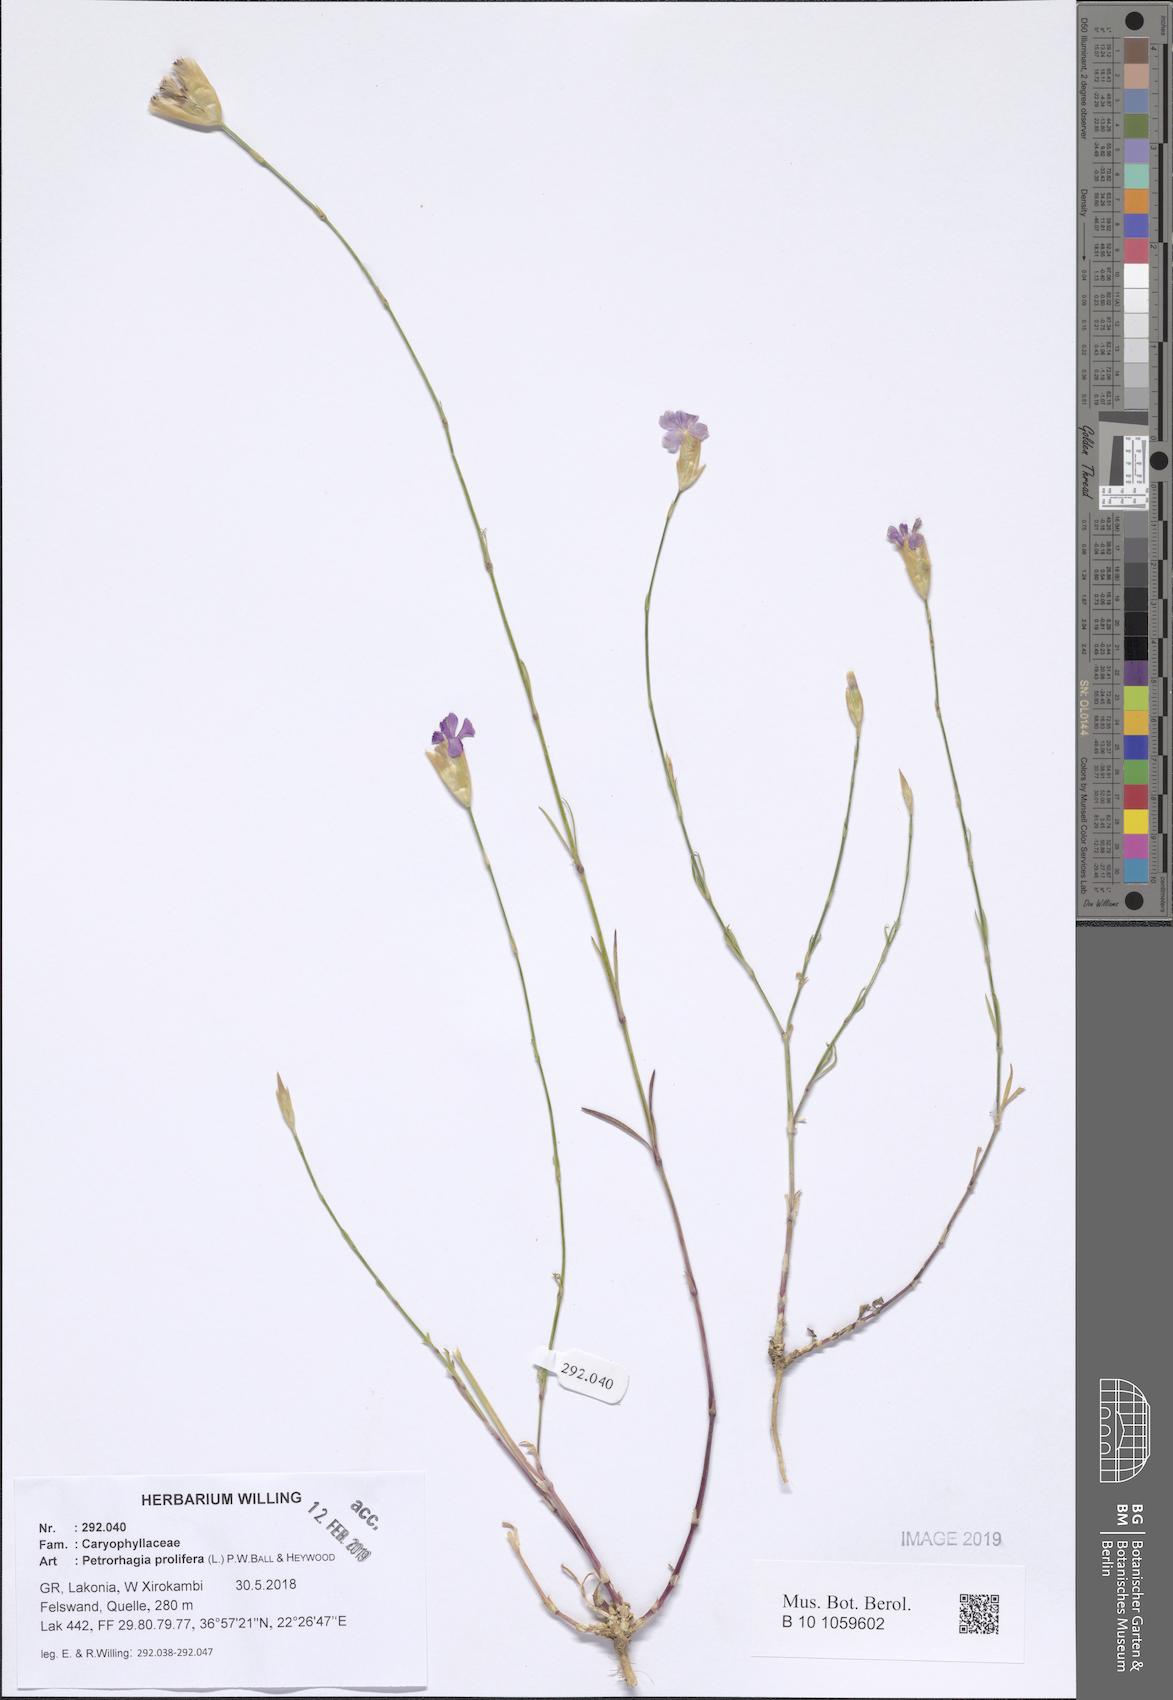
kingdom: Plantae
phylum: Tracheophyta
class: Magnoliopsida
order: Caryophyllales
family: Caryophyllaceae
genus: Petrorhagia
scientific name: Petrorhagia prolifera
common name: Proliferous pink
